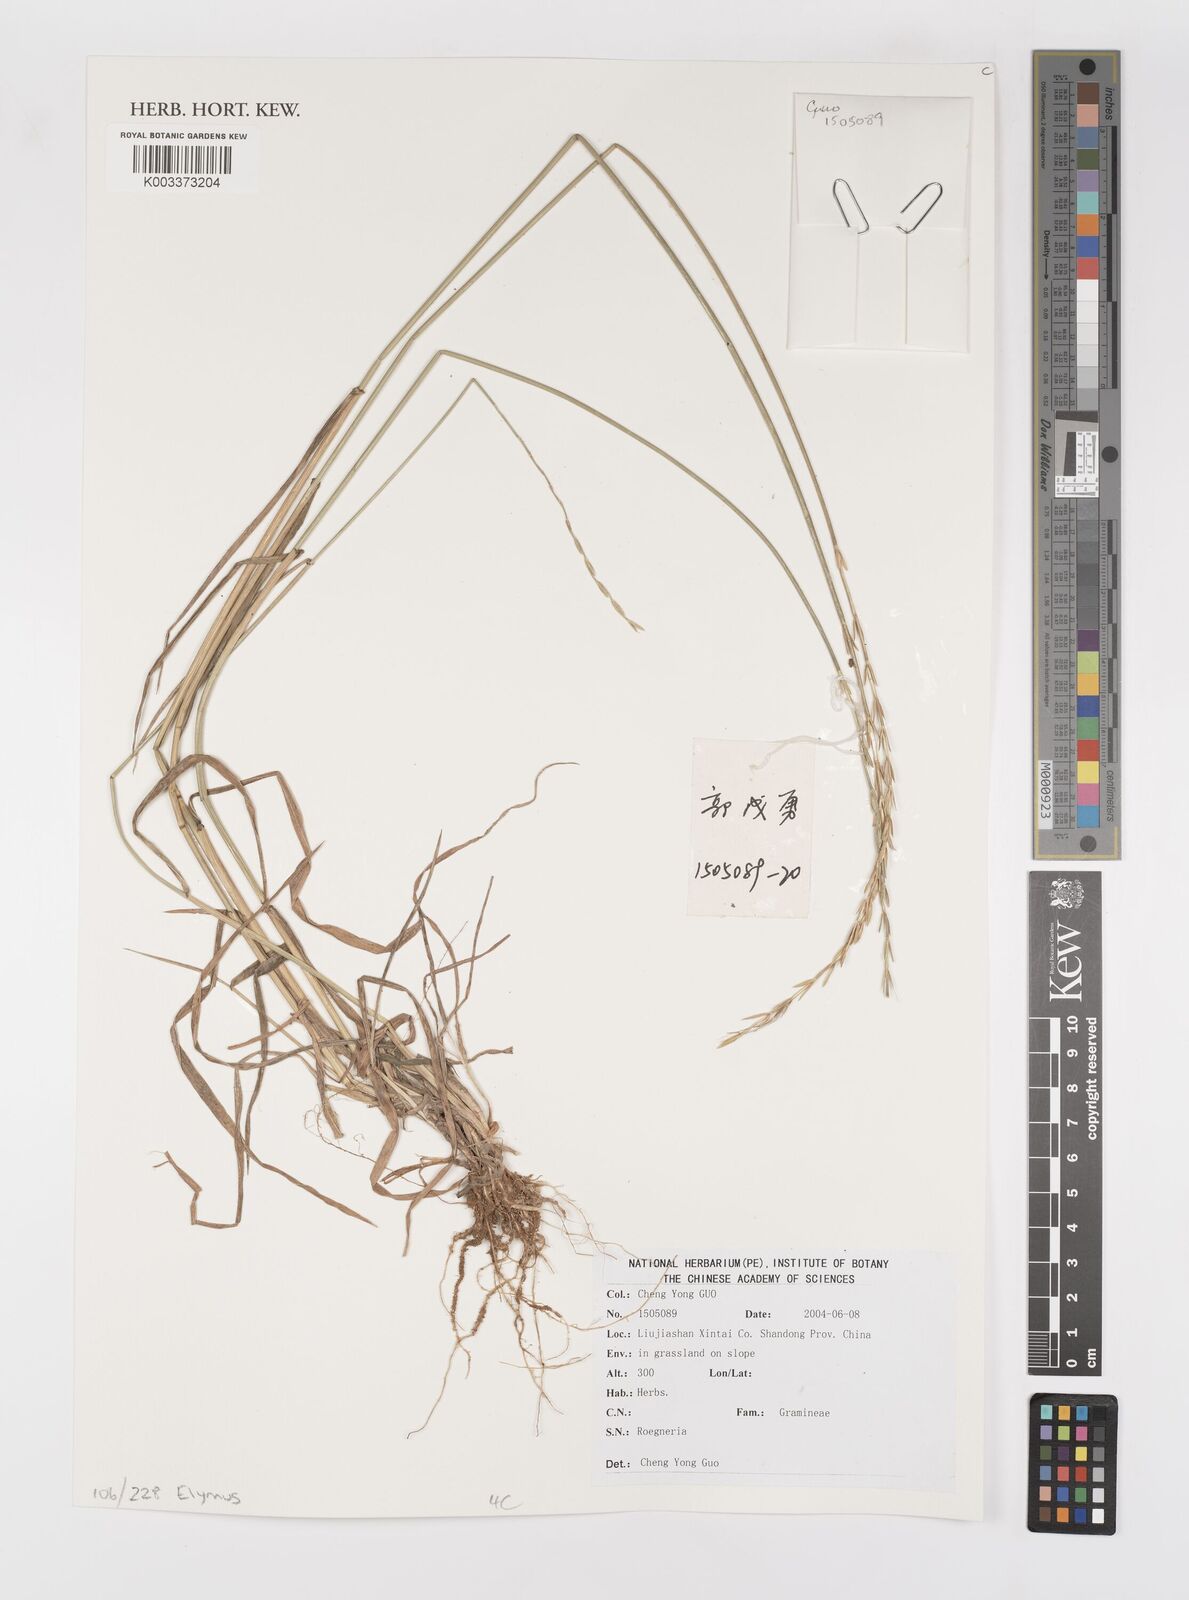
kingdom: Plantae
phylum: Tracheophyta
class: Liliopsida
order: Poales
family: Poaceae
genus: Elymus
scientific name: Elymus
